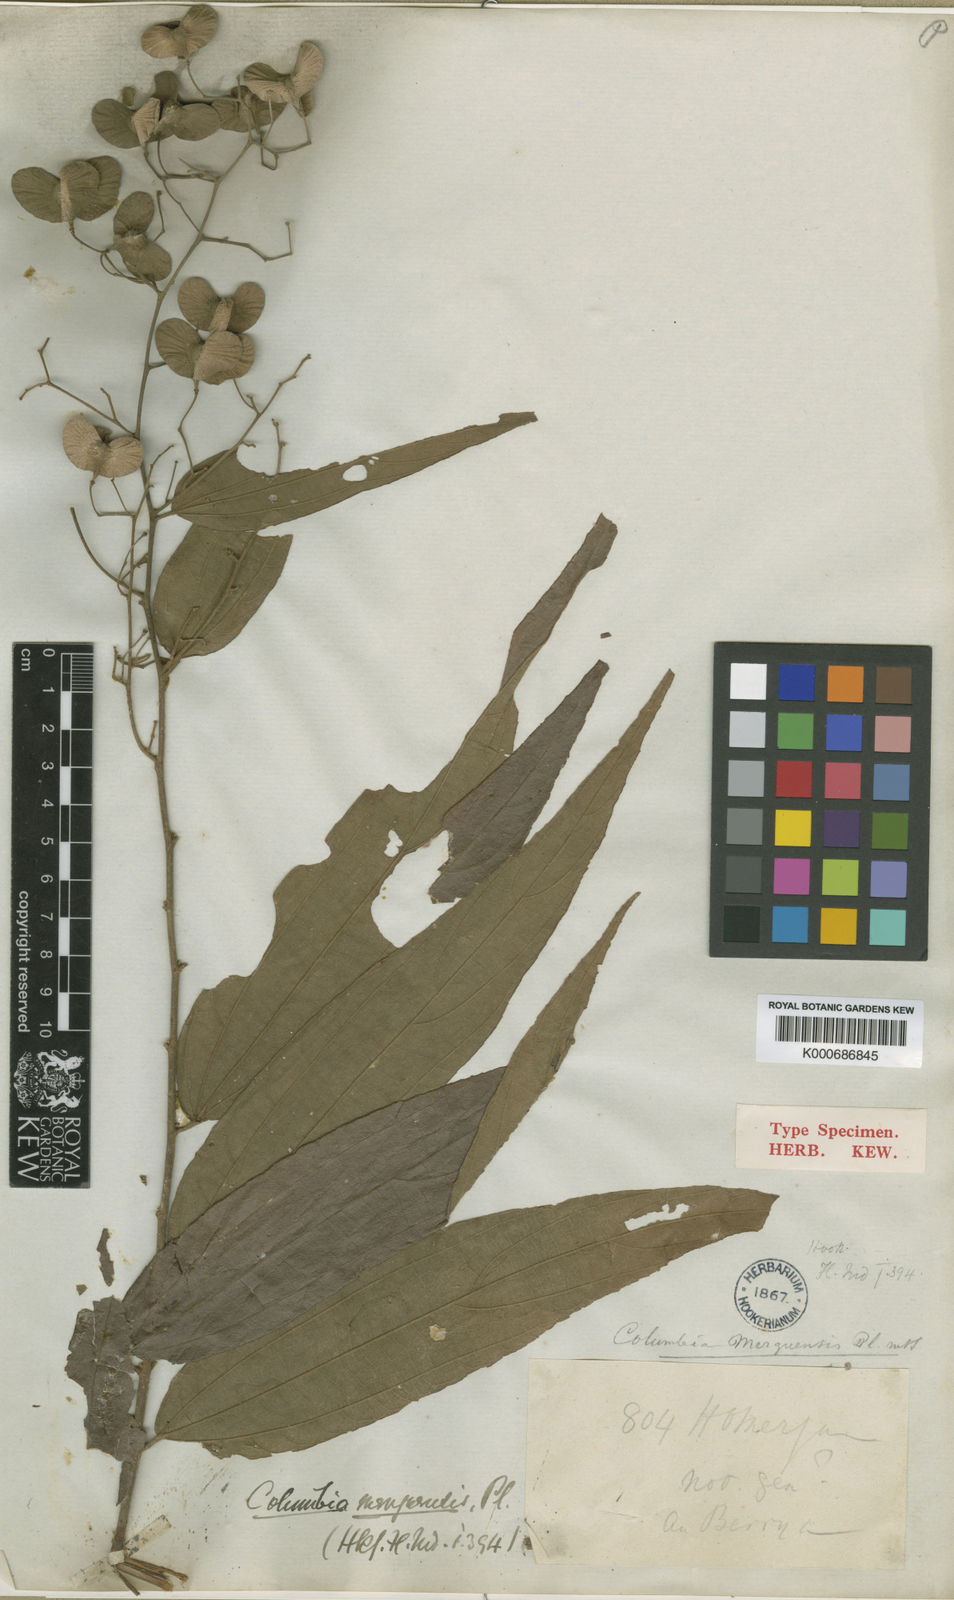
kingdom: Plantae
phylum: Tracheophyta
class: Magnoliopsida
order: Malvales
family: Malvaceae
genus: Colona
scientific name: Colona merguensis
